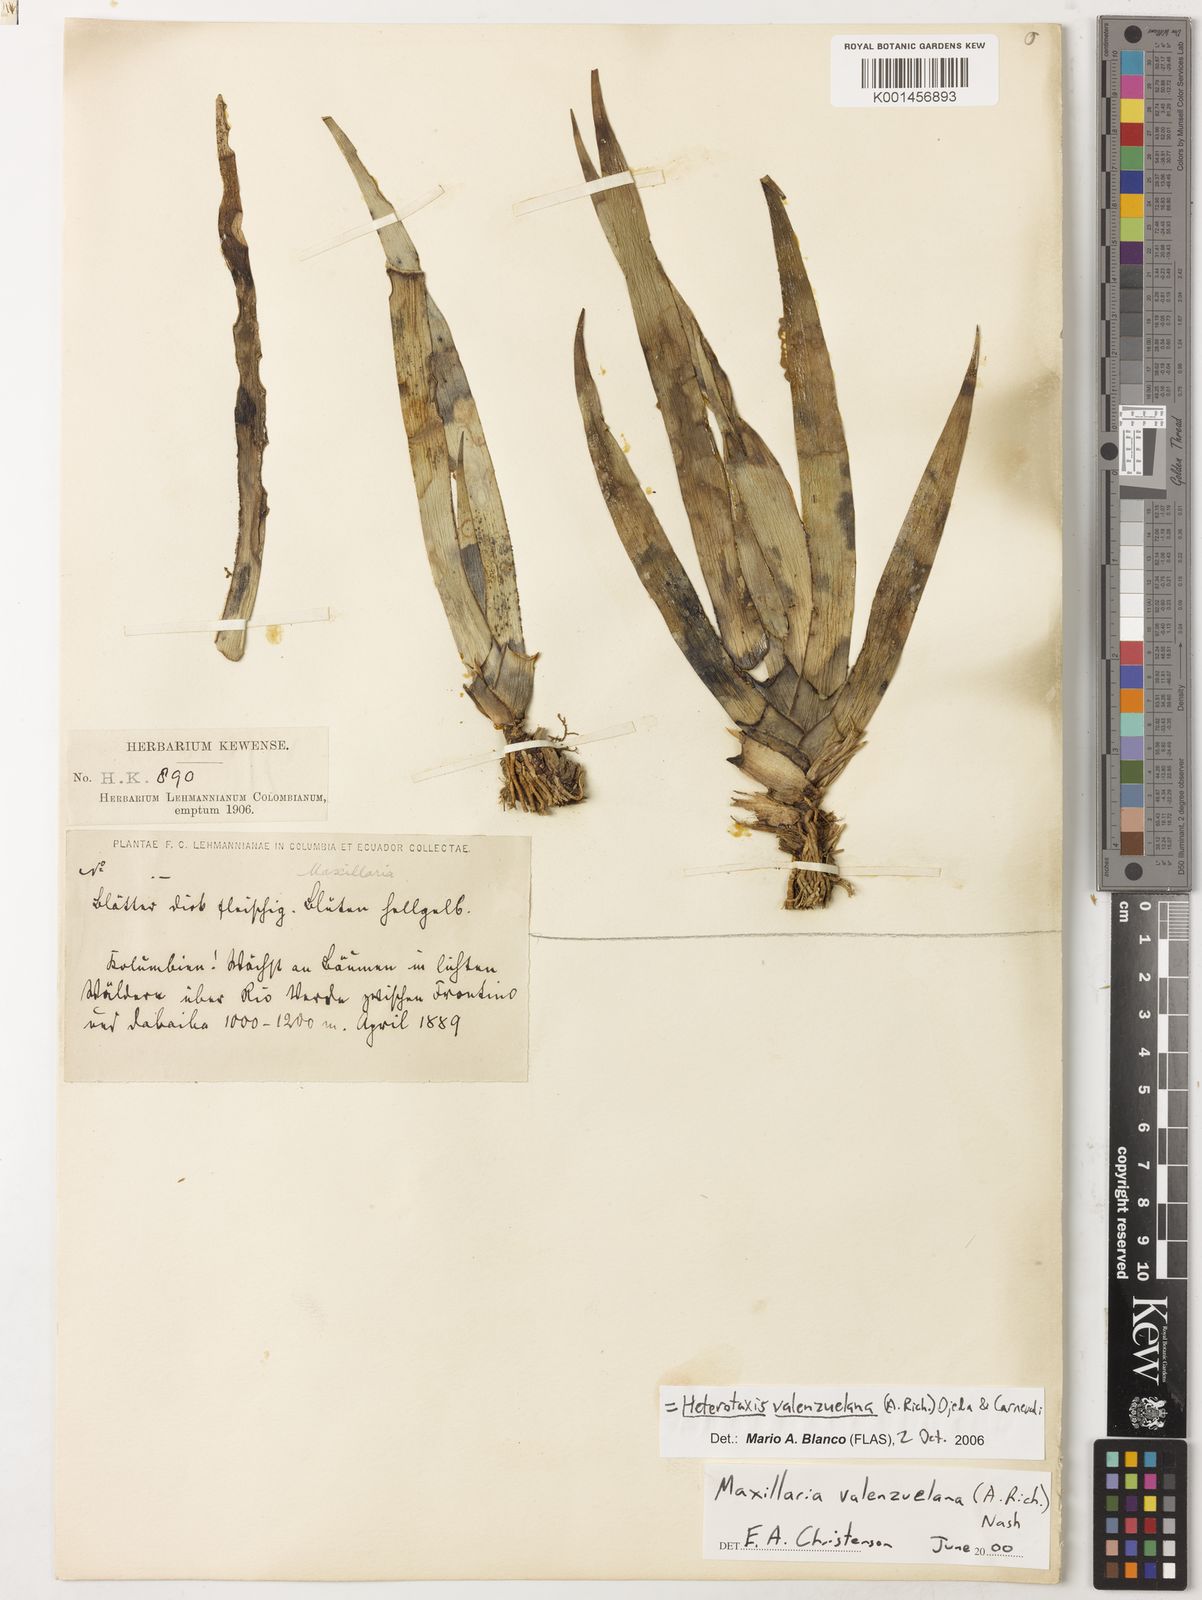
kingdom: Plantae
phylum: Tracheophyta
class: Liliopsida
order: Asparagales
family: Orchidaceae
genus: Maxillaria
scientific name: Maxillaria valenzuelana
